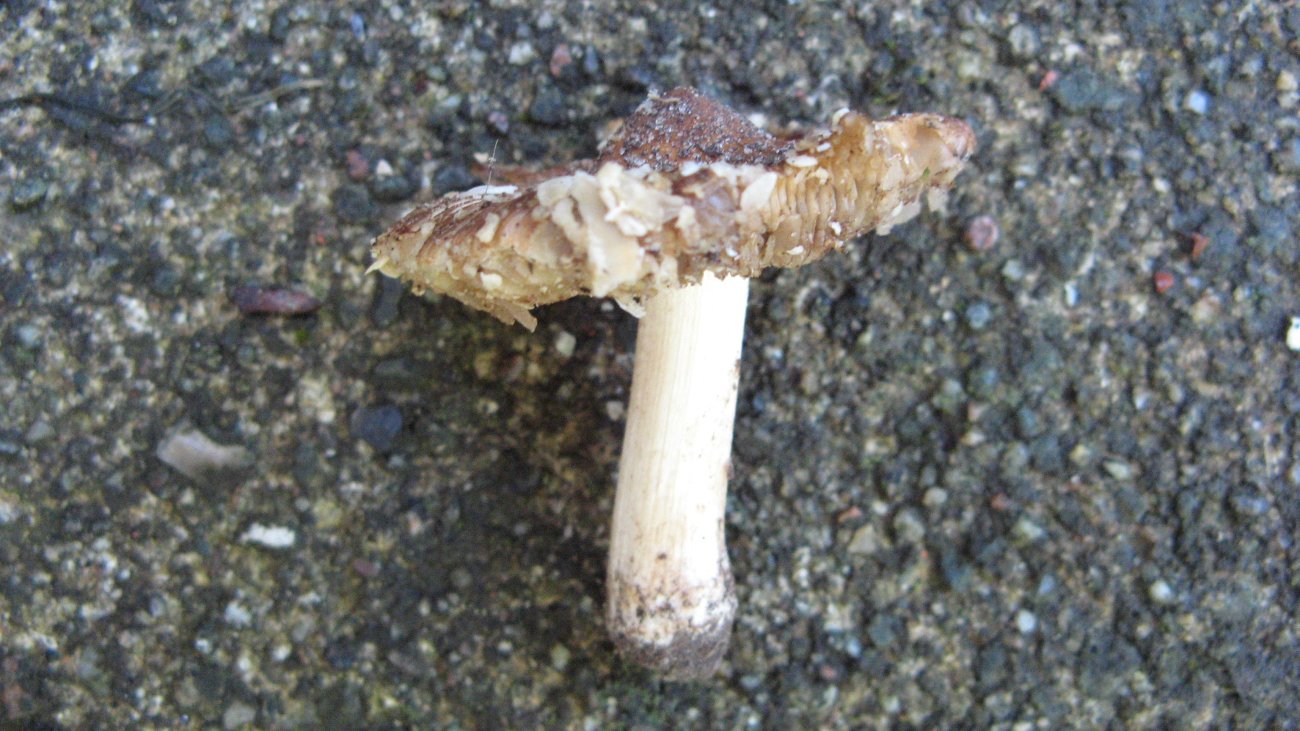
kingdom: Fungi
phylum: Basidiomycota
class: Agaricomycetes
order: Agaricales
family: Inocybaceae
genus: Pseudosperma
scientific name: Pseudosperma rimosum
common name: gulbladet trævlhat
